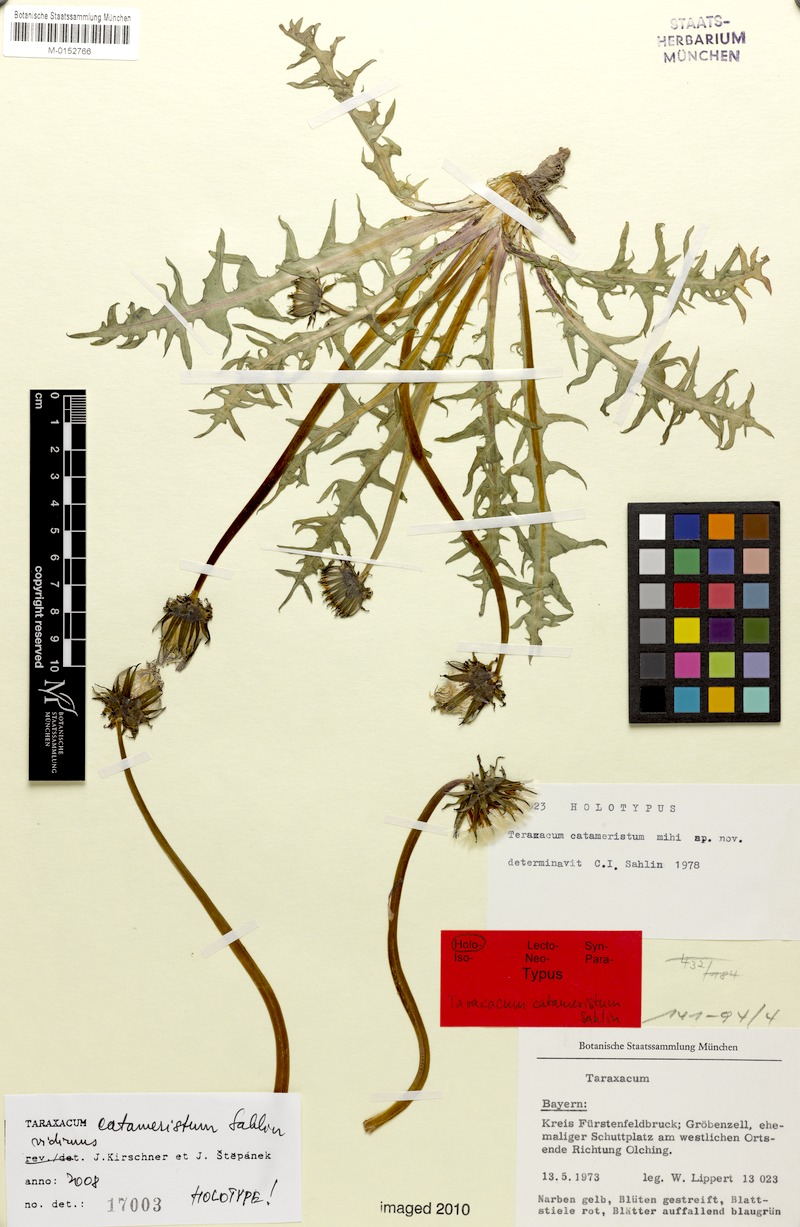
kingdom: Plantae
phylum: Tracheophyta
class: Magnoliopsida
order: Asterales
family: Asteraceae
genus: Taraxacum
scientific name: Taraxacum gentile
